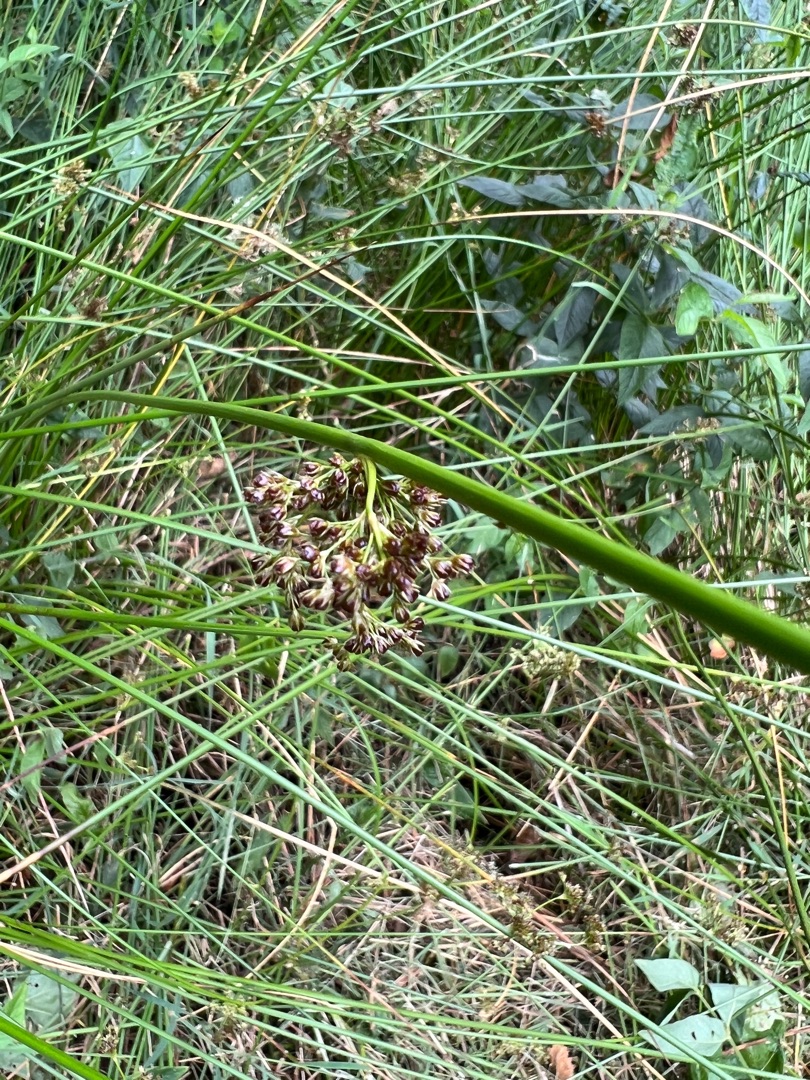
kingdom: Plantae
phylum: Tracheophyta
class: Liliopsida
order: Poales
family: Juncaceae
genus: Juncus
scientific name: Juncus effusus
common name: Lyse-siv
